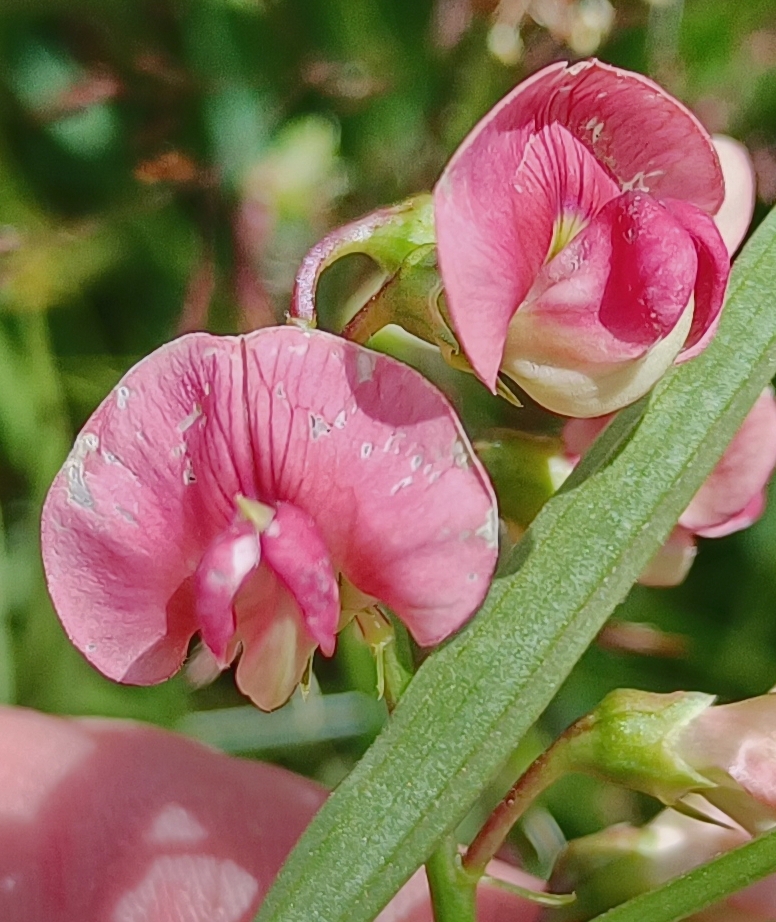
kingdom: Plantae
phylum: Tracheophyta
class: Magnoliopsida
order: Fabales
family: Fabaceae
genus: Lathyrus
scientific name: Lathyrus sylvestris
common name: Skov-fladbælg
